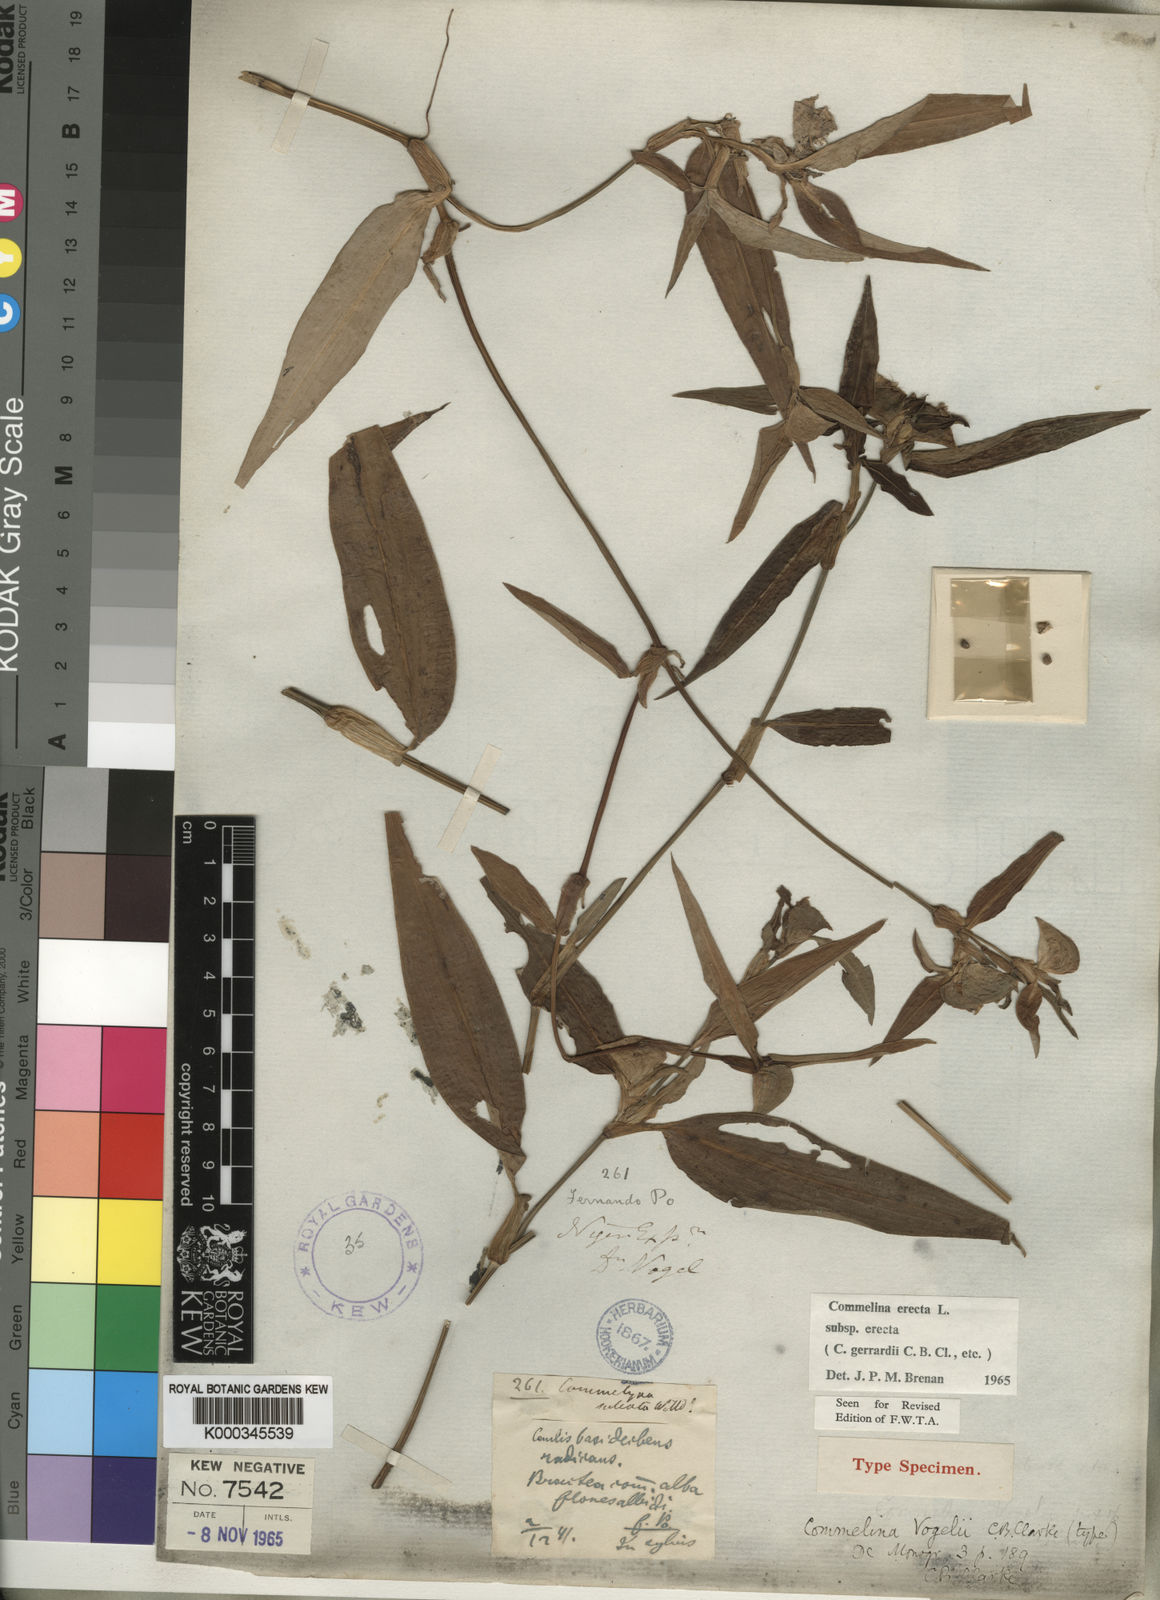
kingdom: Plantae
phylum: Tracheophyta
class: Liliopsida
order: Commelinales
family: Commelinaceae
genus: Commelina
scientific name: Commelina erecta
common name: Blousel blommetjie
